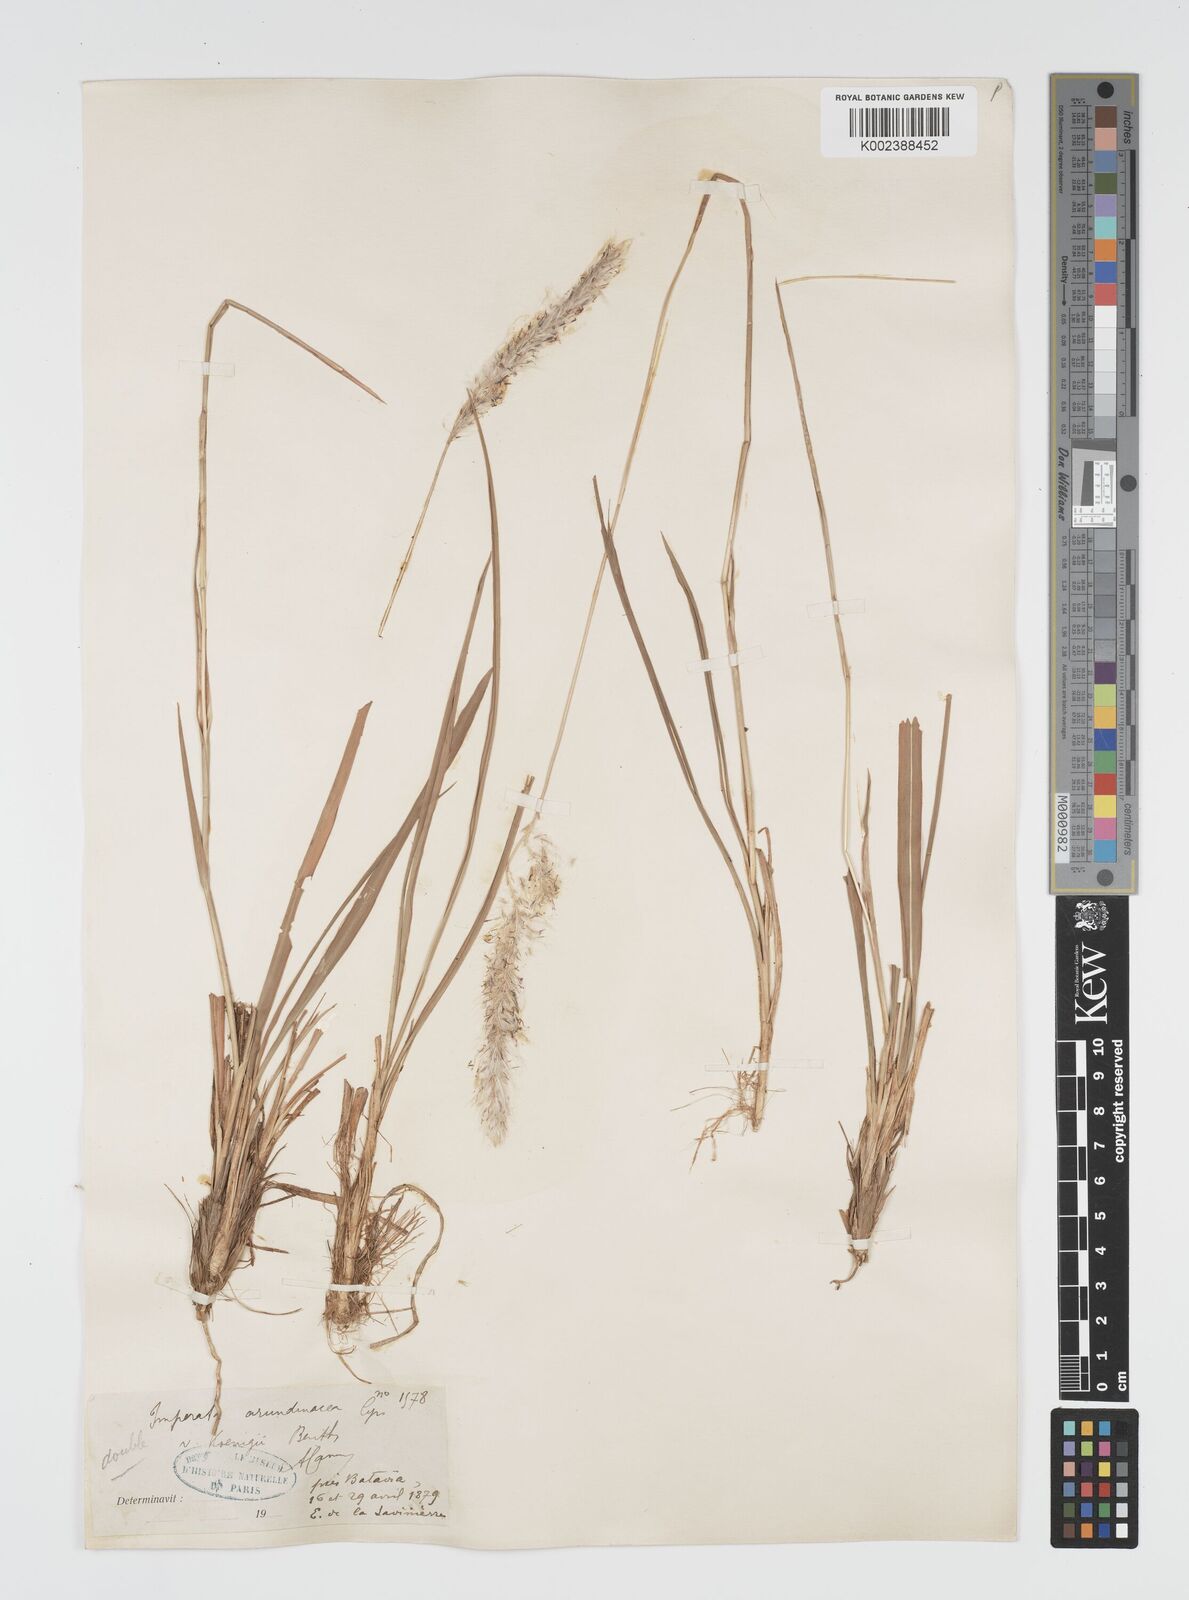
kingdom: Plantae
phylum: Tracheophyta
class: Liliopsida
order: Poales
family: Poaceae
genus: Imperata
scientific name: Imperata
